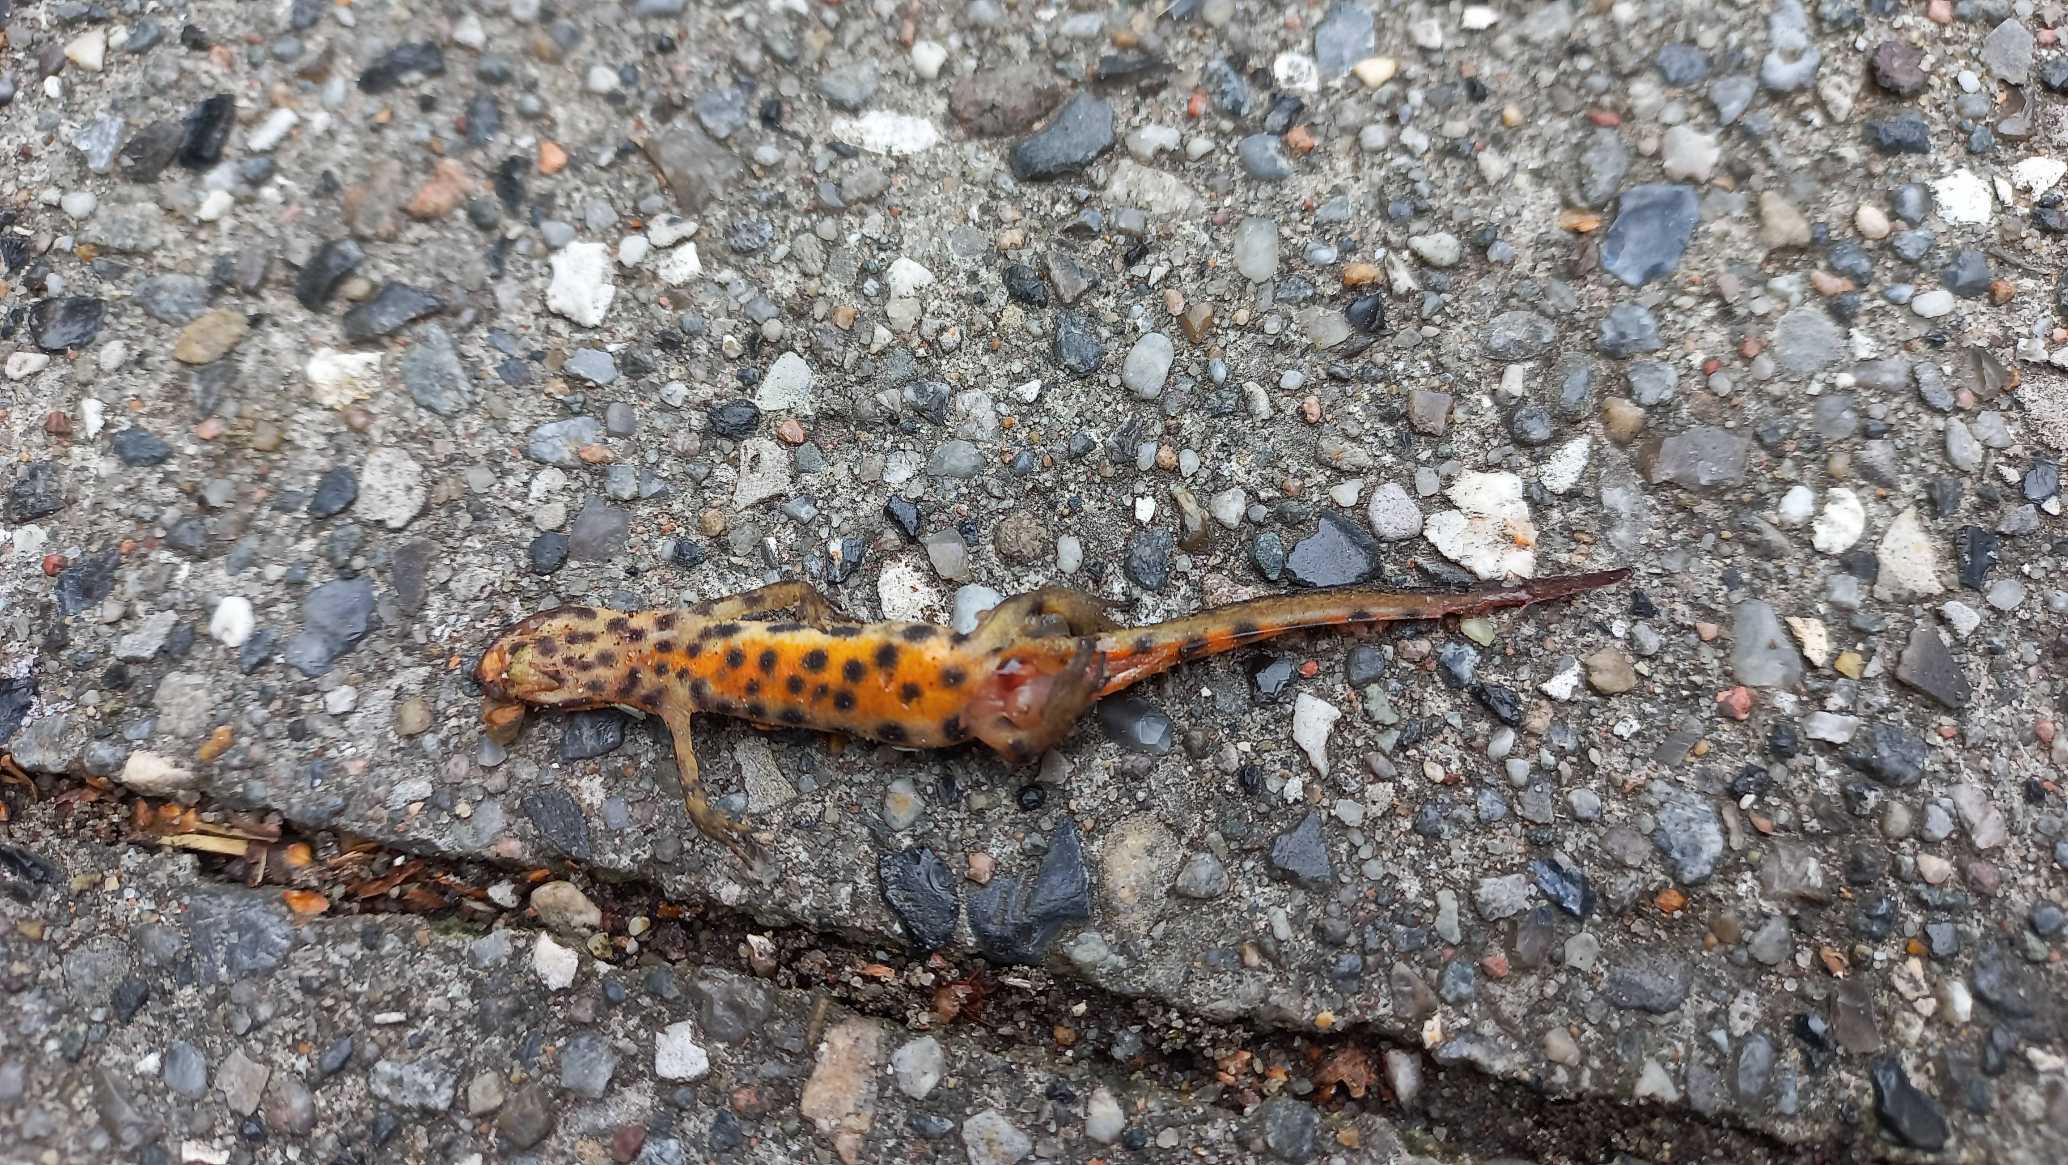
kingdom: Animalia
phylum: Chordata
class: Amphibia
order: Caudata
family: Salamandridae
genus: Lissotriton
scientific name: Lissotriton vulgaris
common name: Lille vandsalamander
